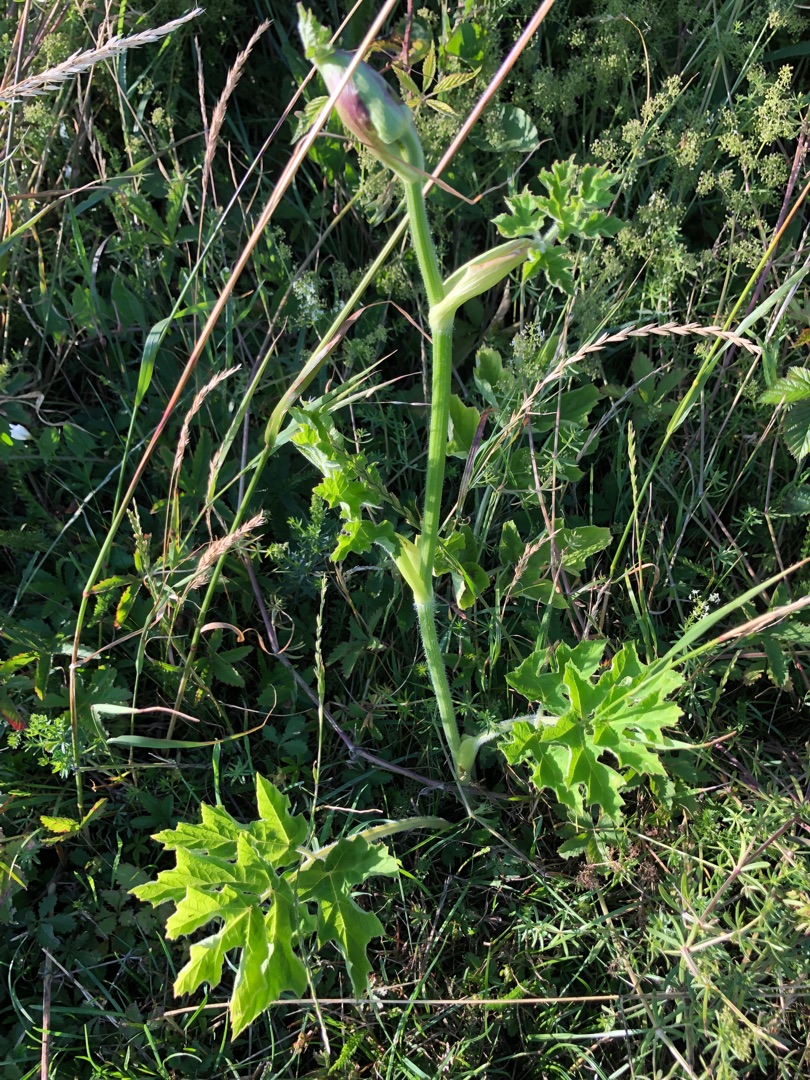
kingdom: Plantae
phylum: Tracheophyta
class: Magnoliopsida
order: Apiales
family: Apiaceae
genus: Heracleum
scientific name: Heracleum sphondylium
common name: Almindelig bjørneklo
